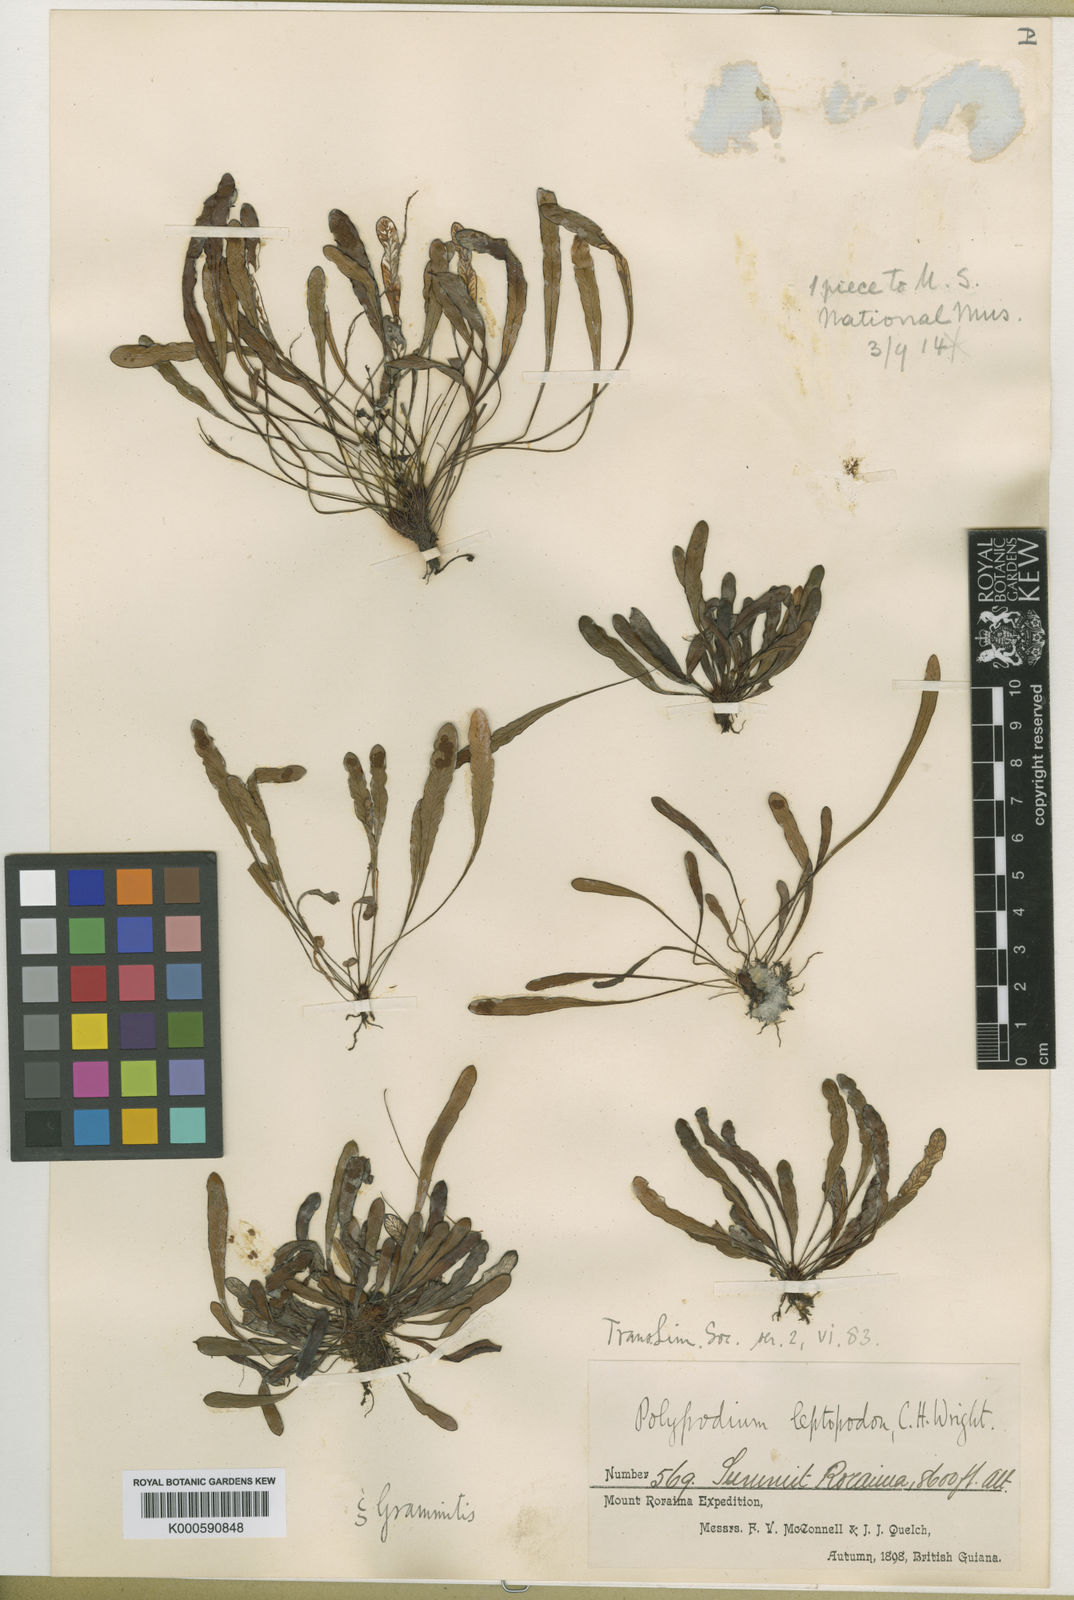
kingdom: Plantae
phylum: Tracheophyta
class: Polypodiopsida
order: Polypodiales
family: Polypodiaceae
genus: Grammitis
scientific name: Grammitis leptopoda
